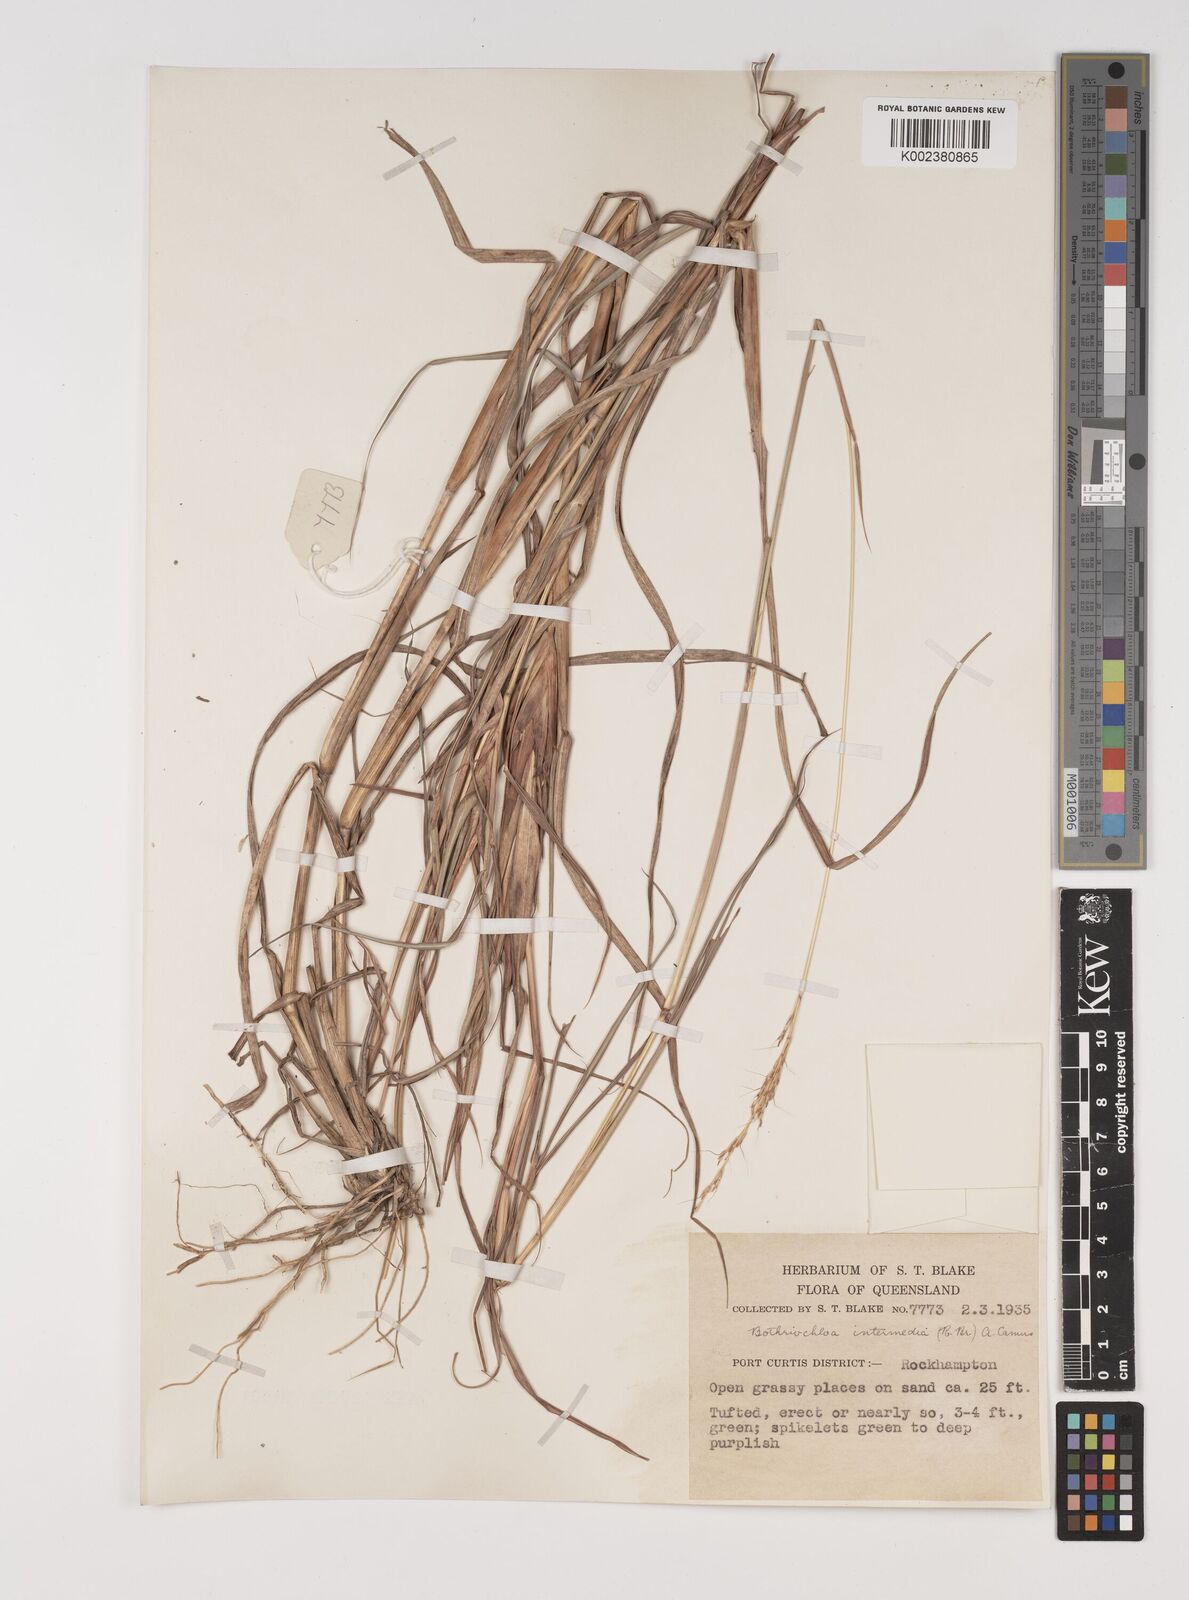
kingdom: Plantae
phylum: Tracheophyta
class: Liliopsida
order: Poales
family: Poaceae
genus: Bothriochloa
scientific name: Bothriochloa bladhii
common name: Caucasian bluestem
